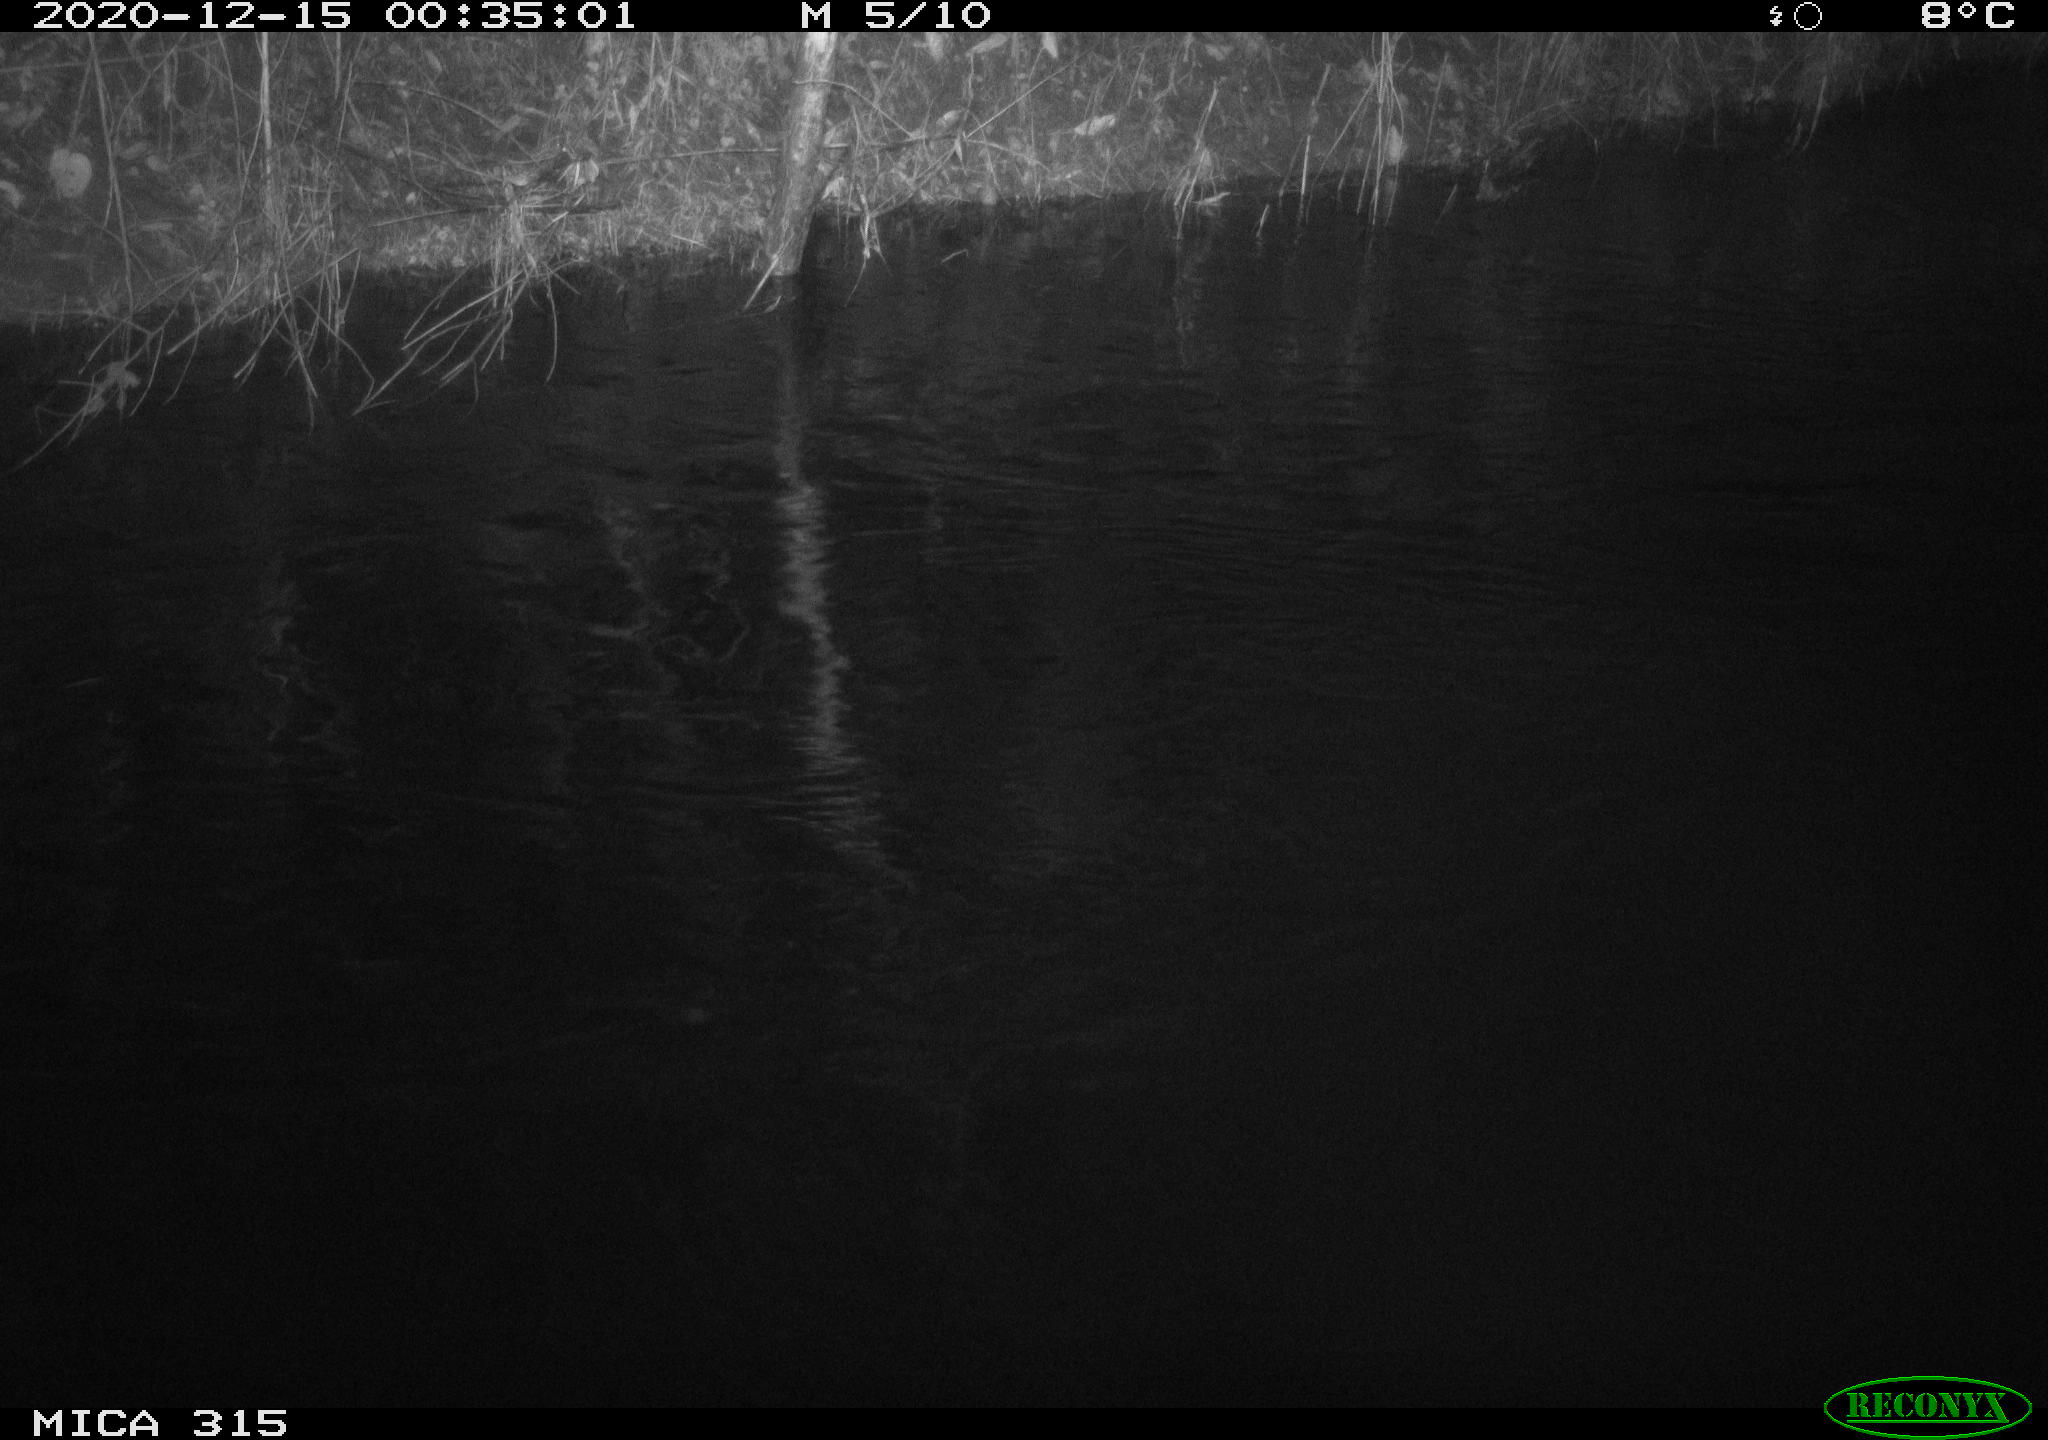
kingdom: Animalia
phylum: Chordata
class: Aves
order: Anseriformes
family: Anatidae
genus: Anas
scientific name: Anas platyrhynchos
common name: Mallard
